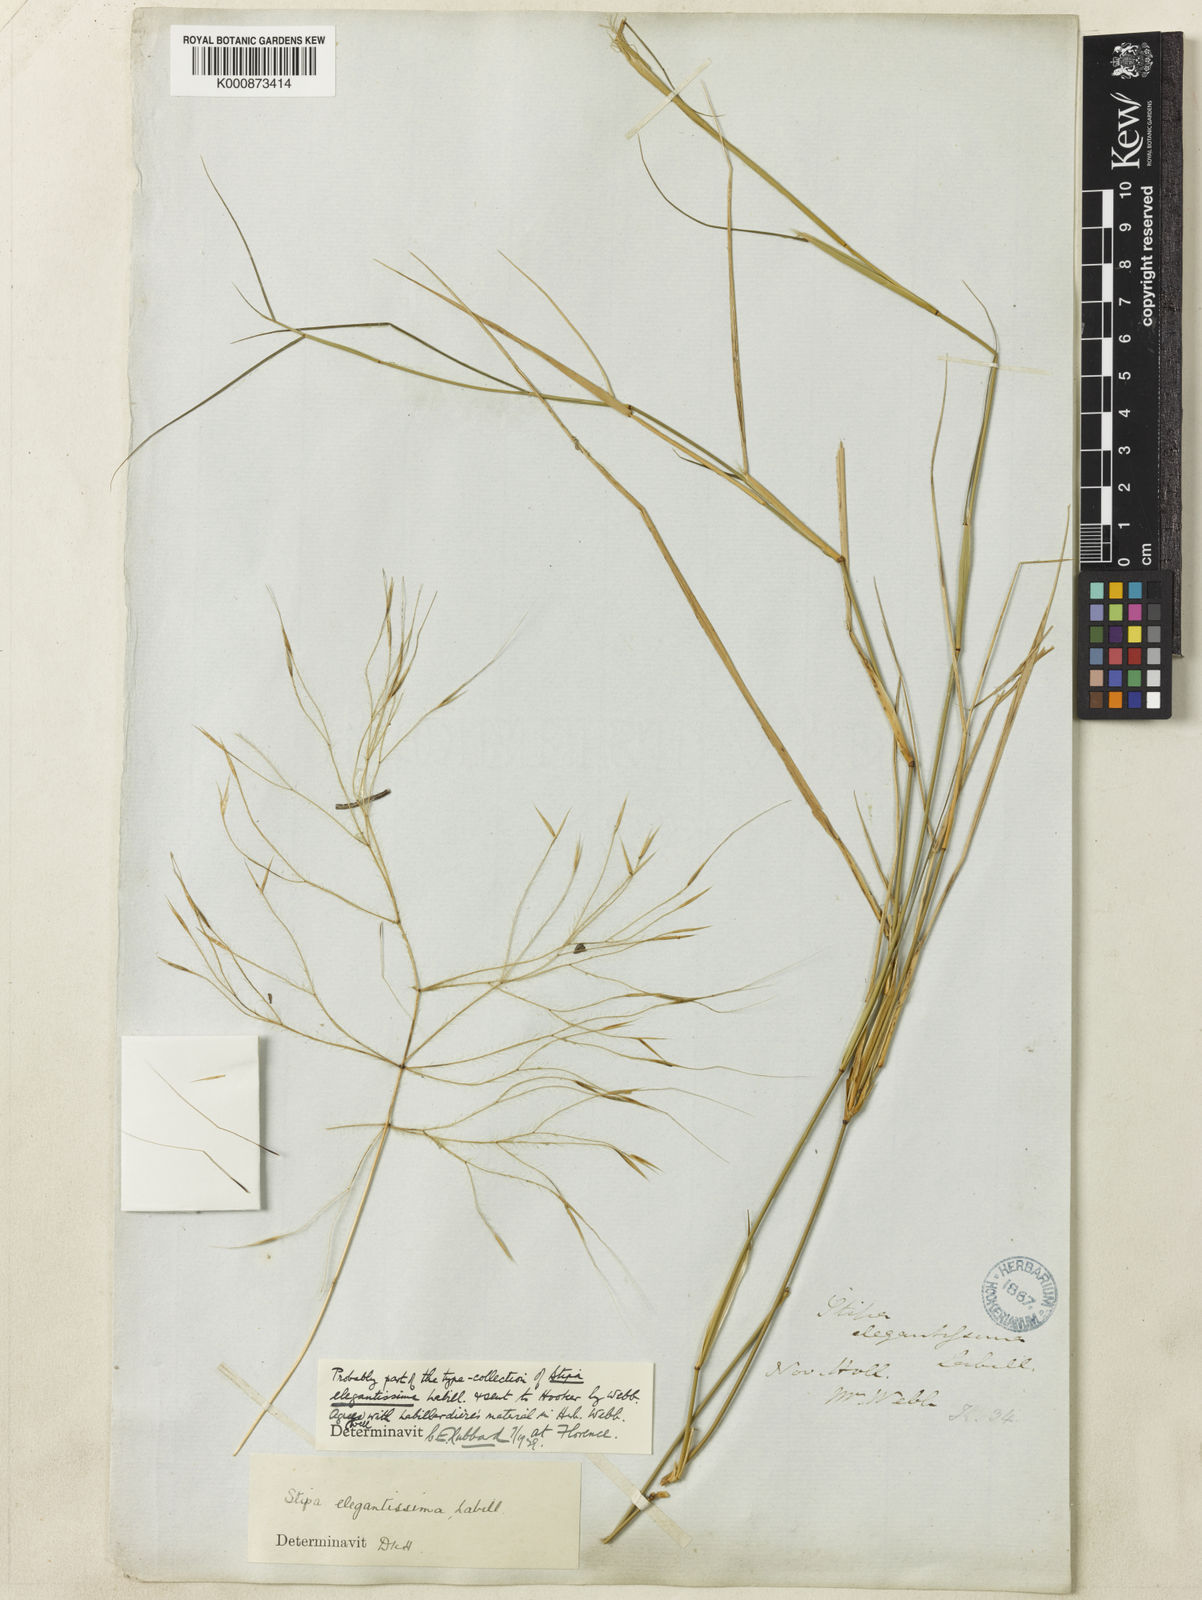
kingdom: Plantae
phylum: Tracheophyta
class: Liliopsida
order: Poales
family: Poaceae
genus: Austrostipa
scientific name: Austrostipa elegantissima
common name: Feather spear grass
